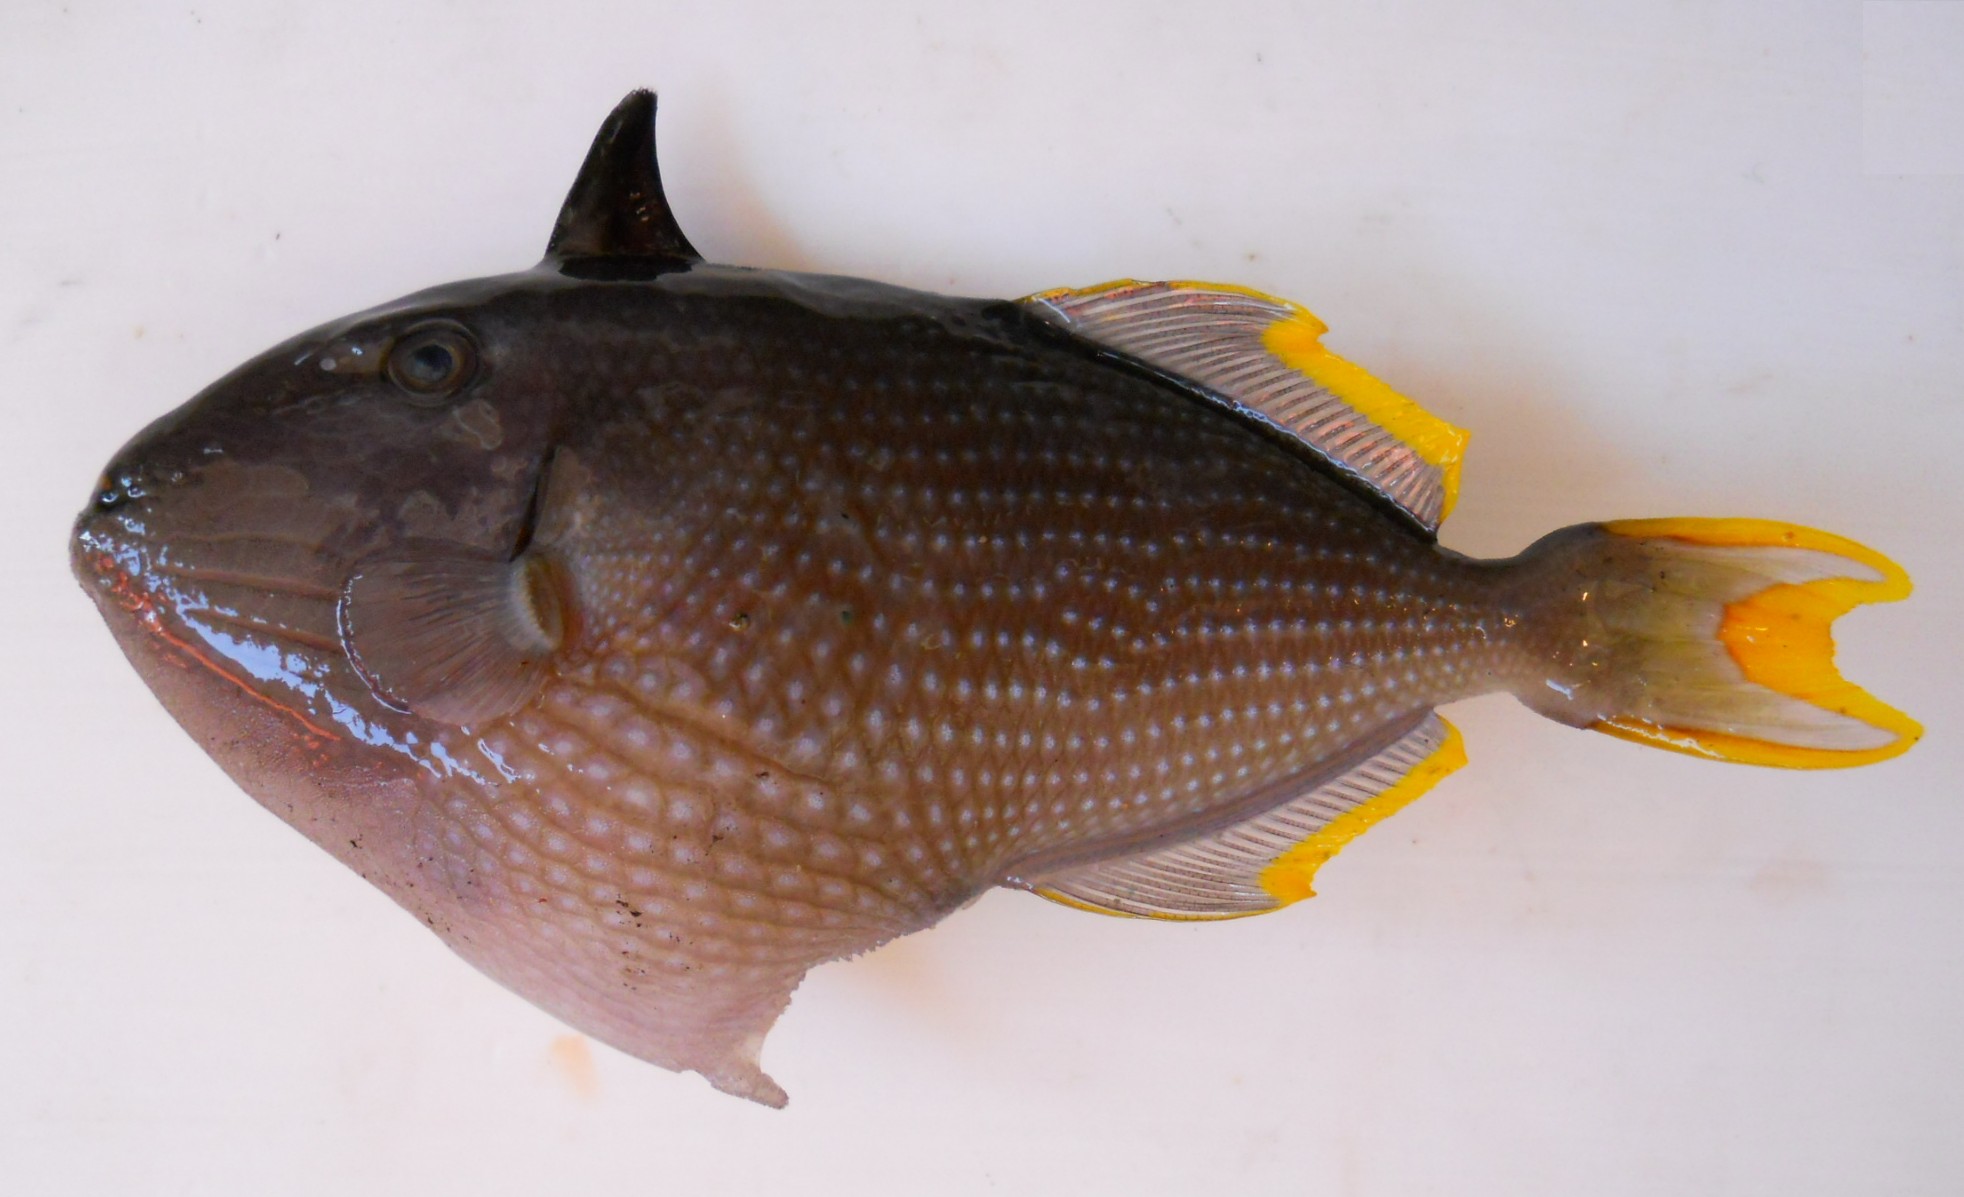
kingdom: Animalia
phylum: Chordata
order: Tetraodontiformes
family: Balistidae
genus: Xanthichthys
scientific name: Xanthichthys auromarginatus
